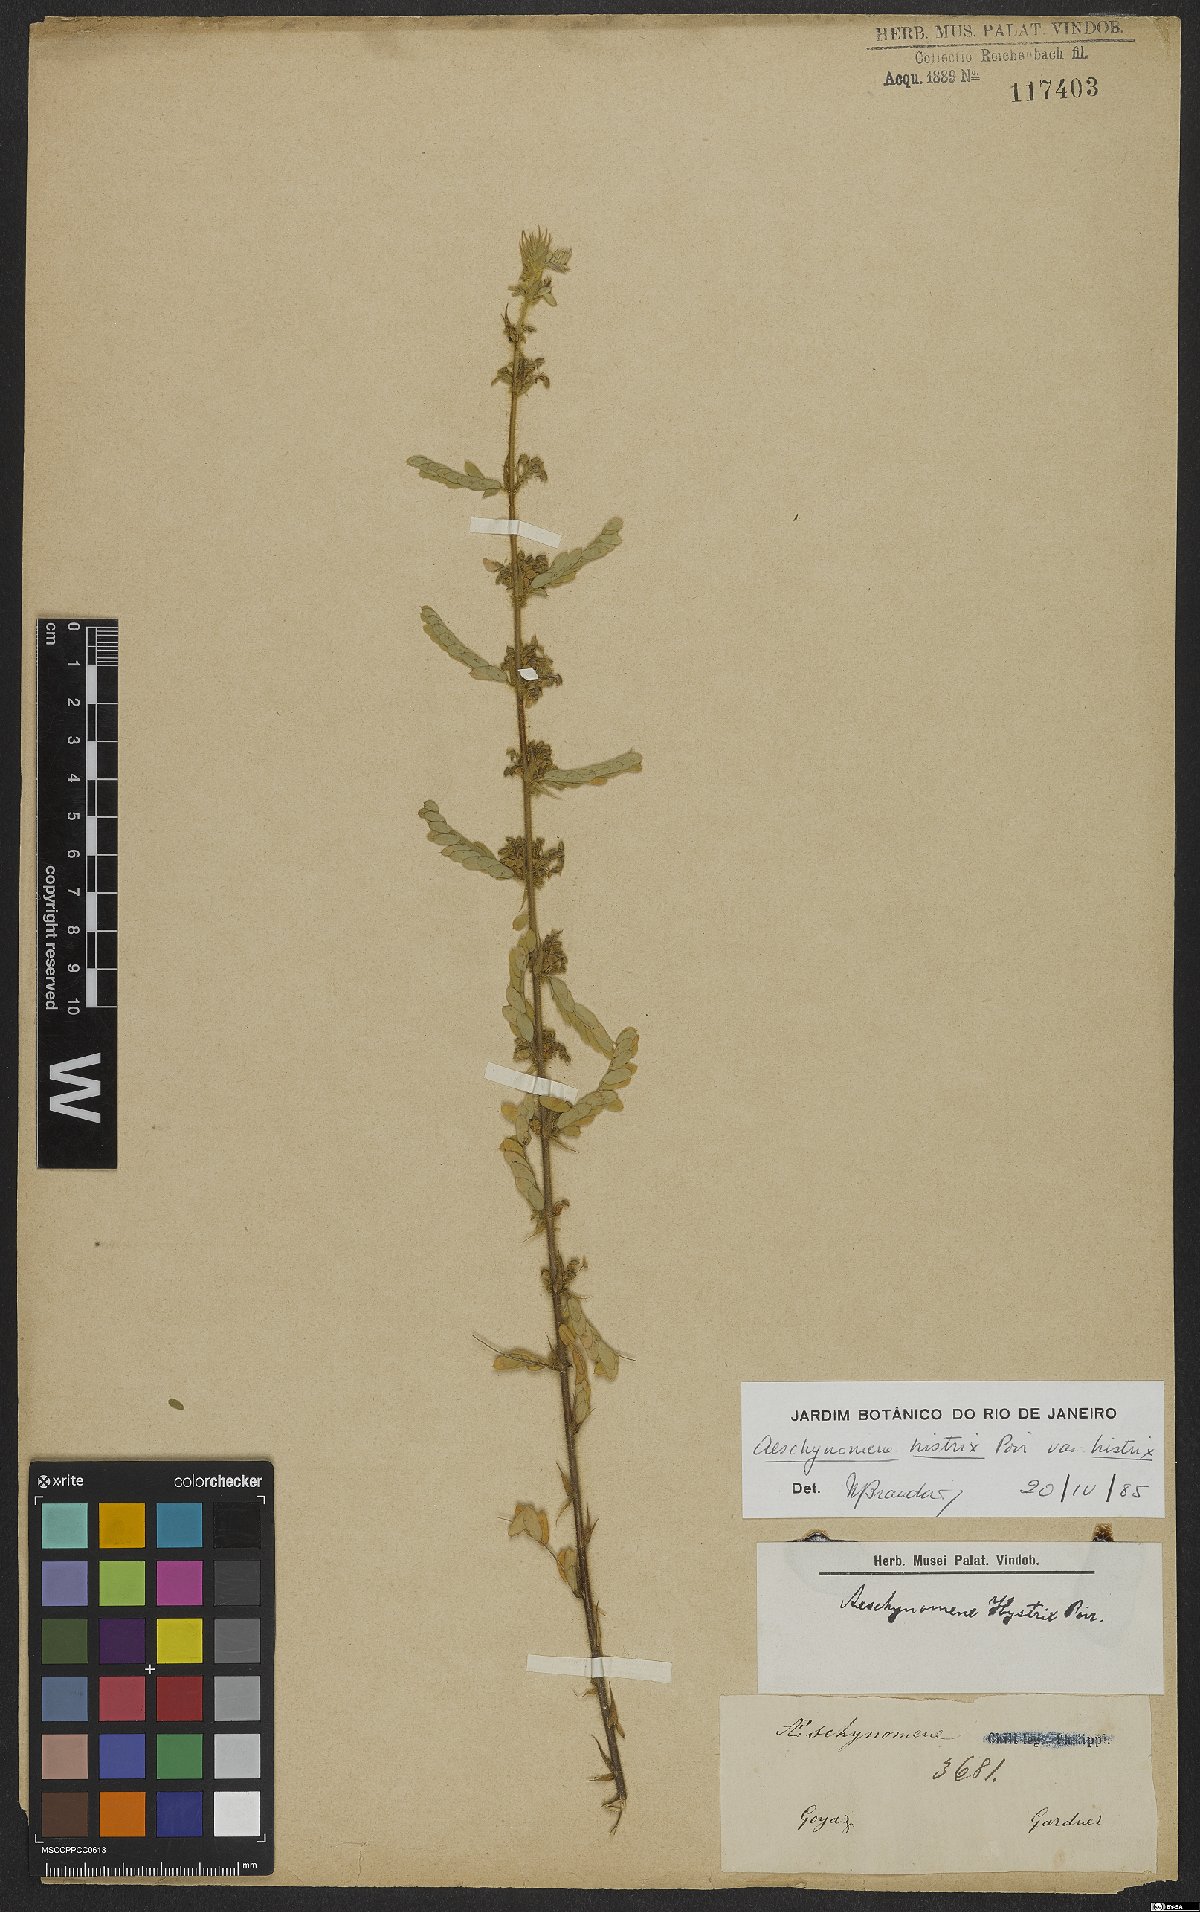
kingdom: Plantae
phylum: Tracheophyta
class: Magnoliopsida
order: Fabales
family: Fabaceae
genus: Ctenodon
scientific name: Ctenodon histrix
